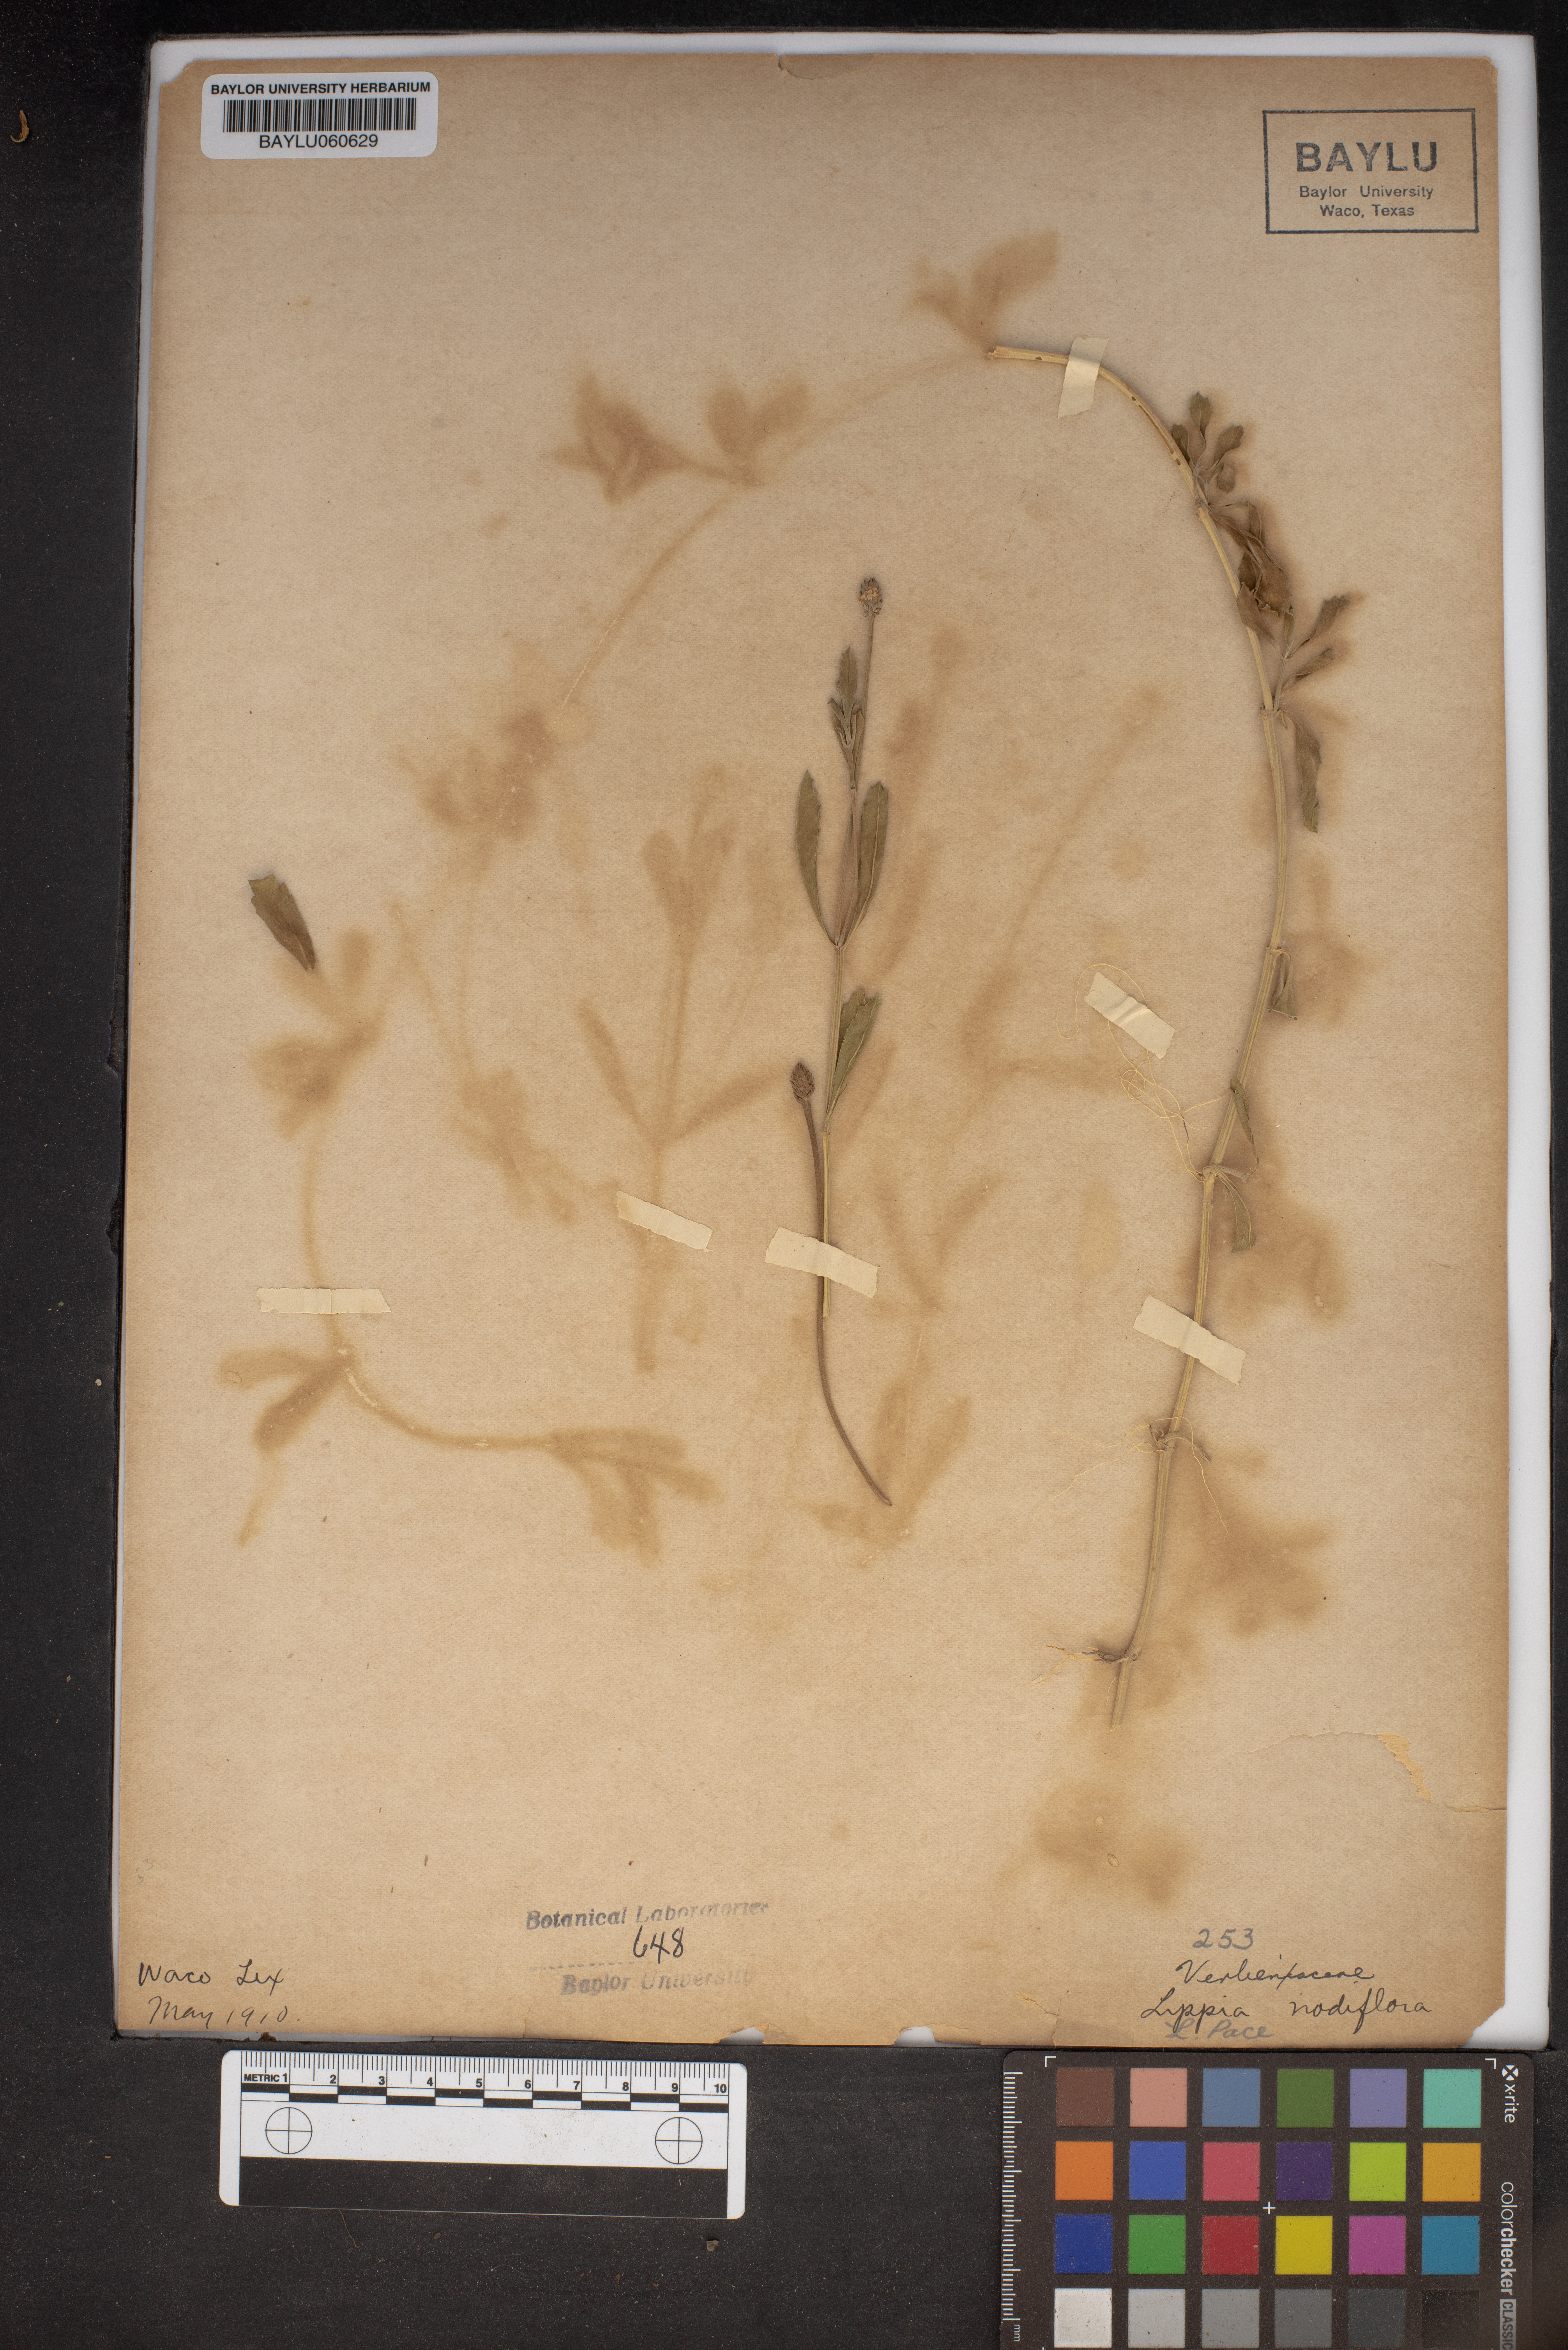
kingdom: Plantae
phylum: Tracheophyta
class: Magnoliopsida
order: Lamiales
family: Verbenaceae
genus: Phyla
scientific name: Phyla nodiflora
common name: Frogfruit
